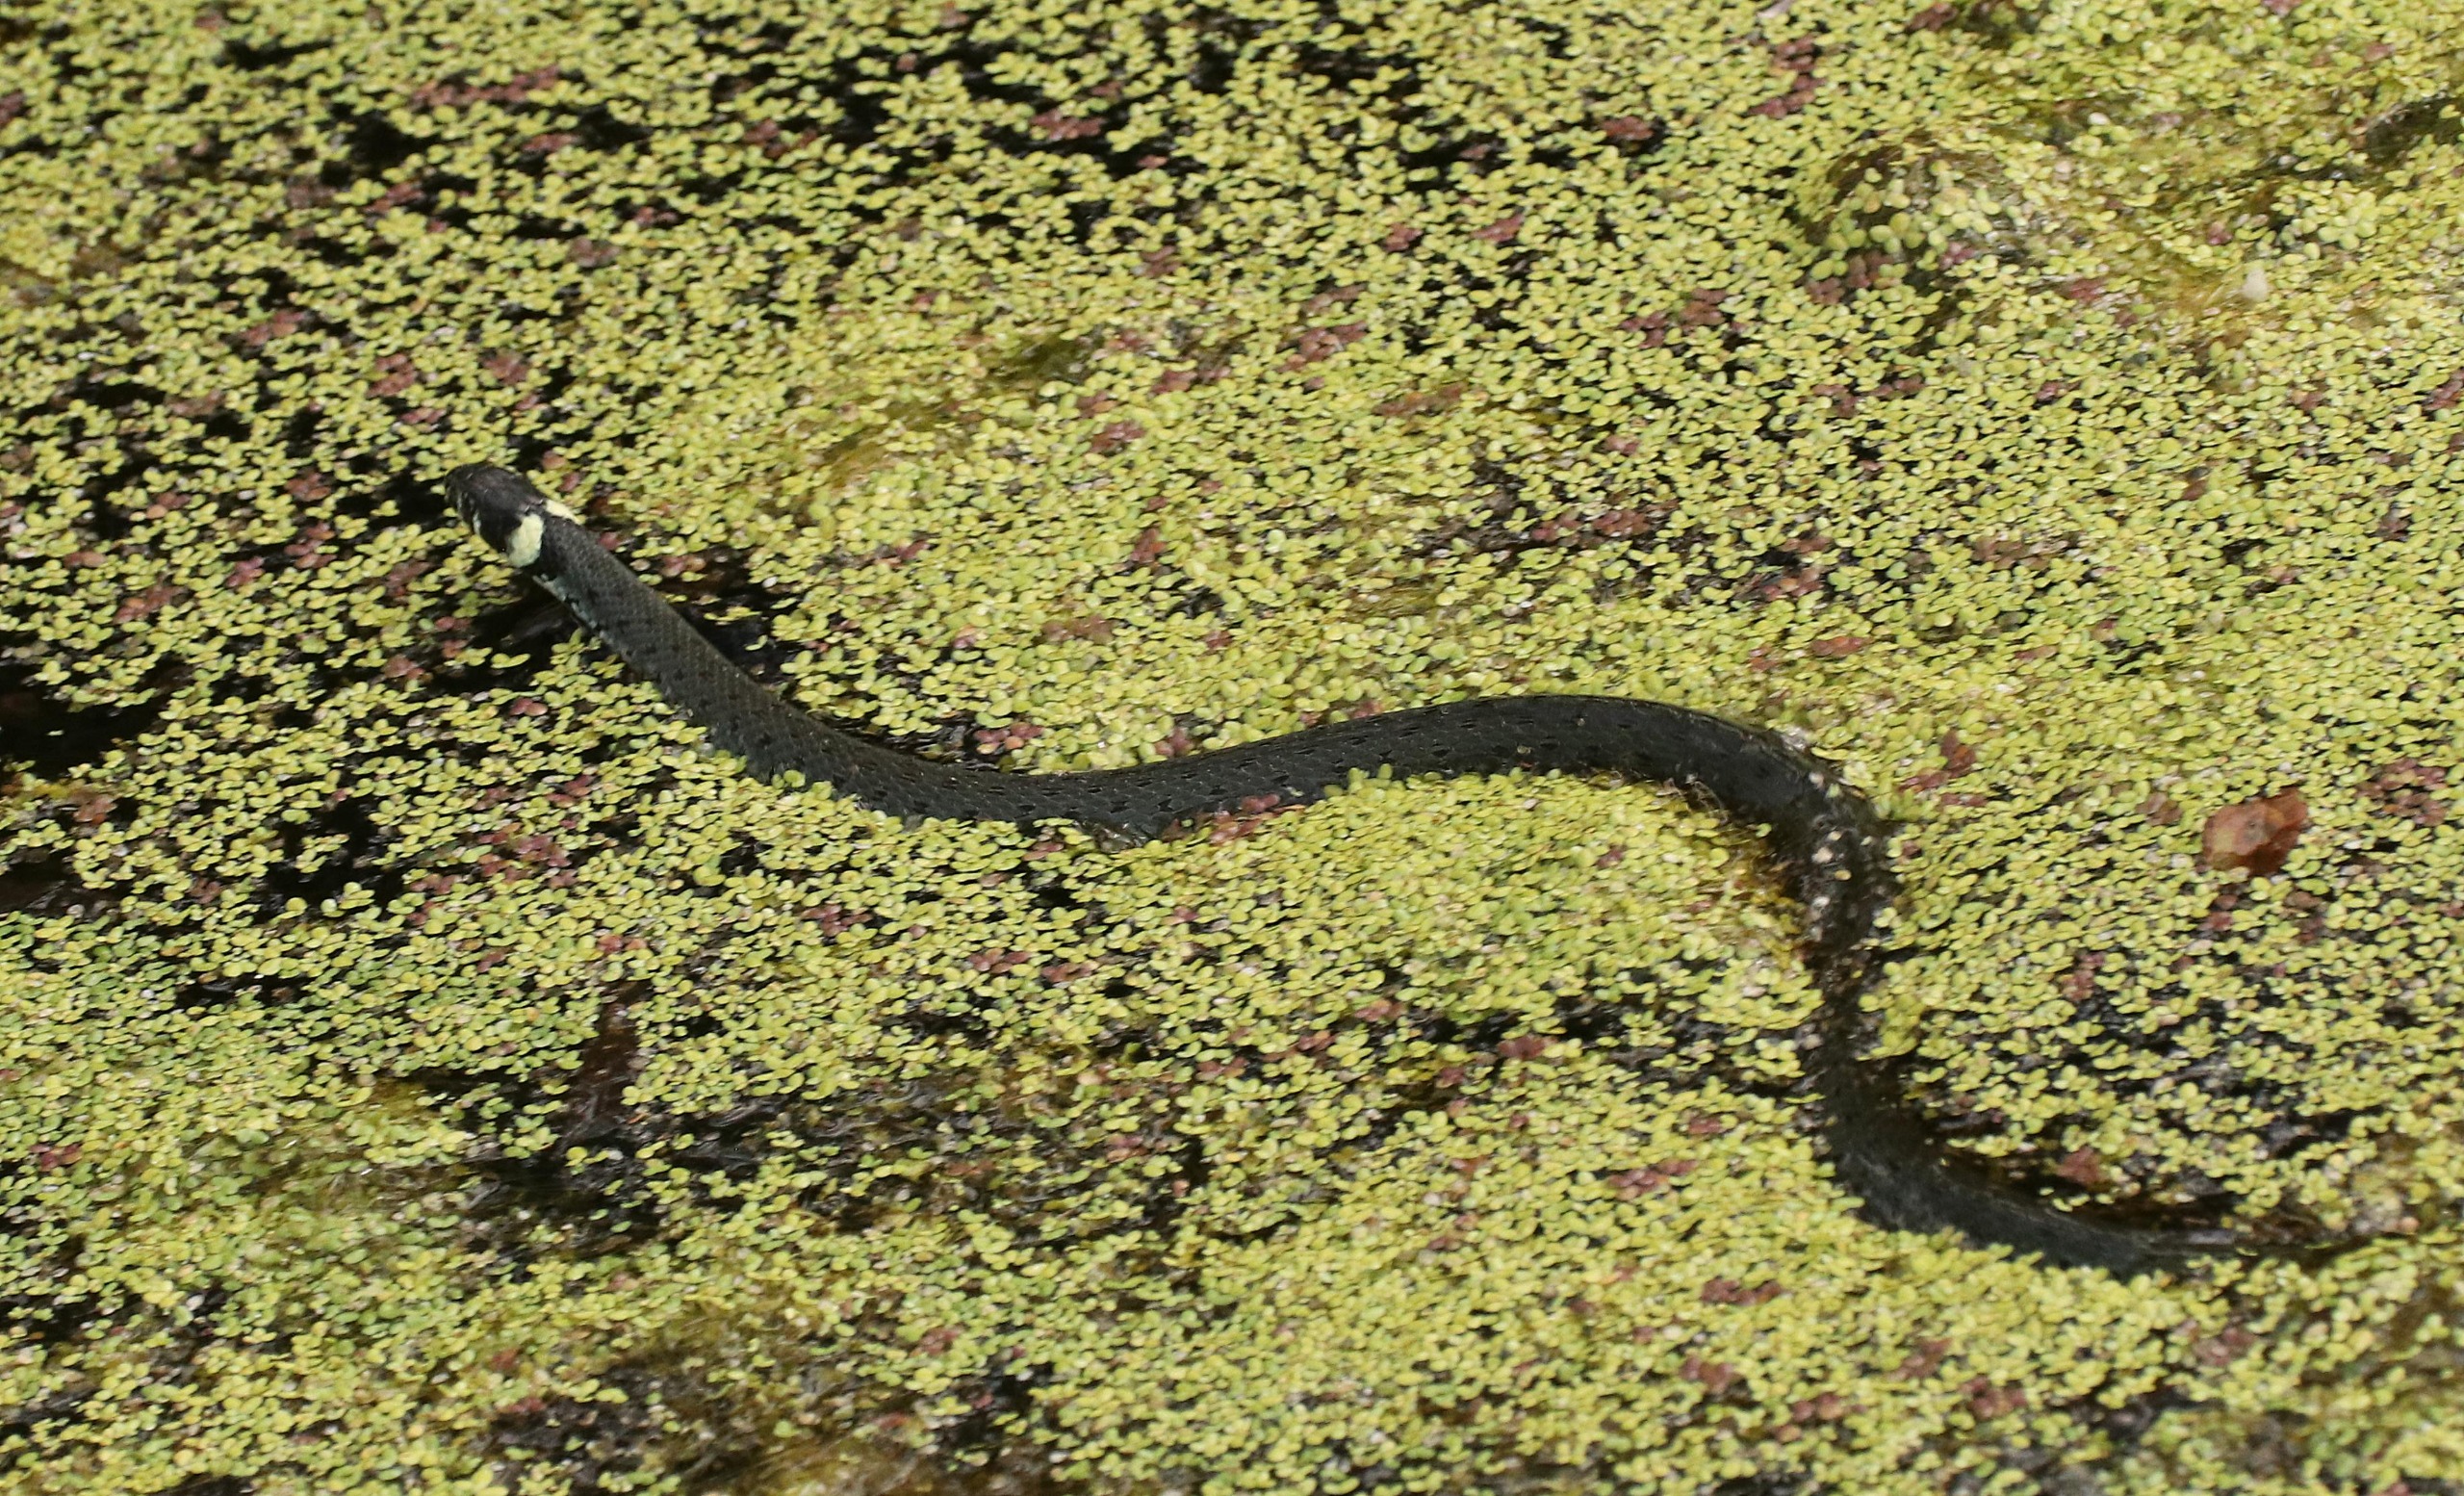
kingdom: Animalia
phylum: Chordata
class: Squamata
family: Colubridae
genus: Natrix
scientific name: Natrix natrix
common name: Snog
